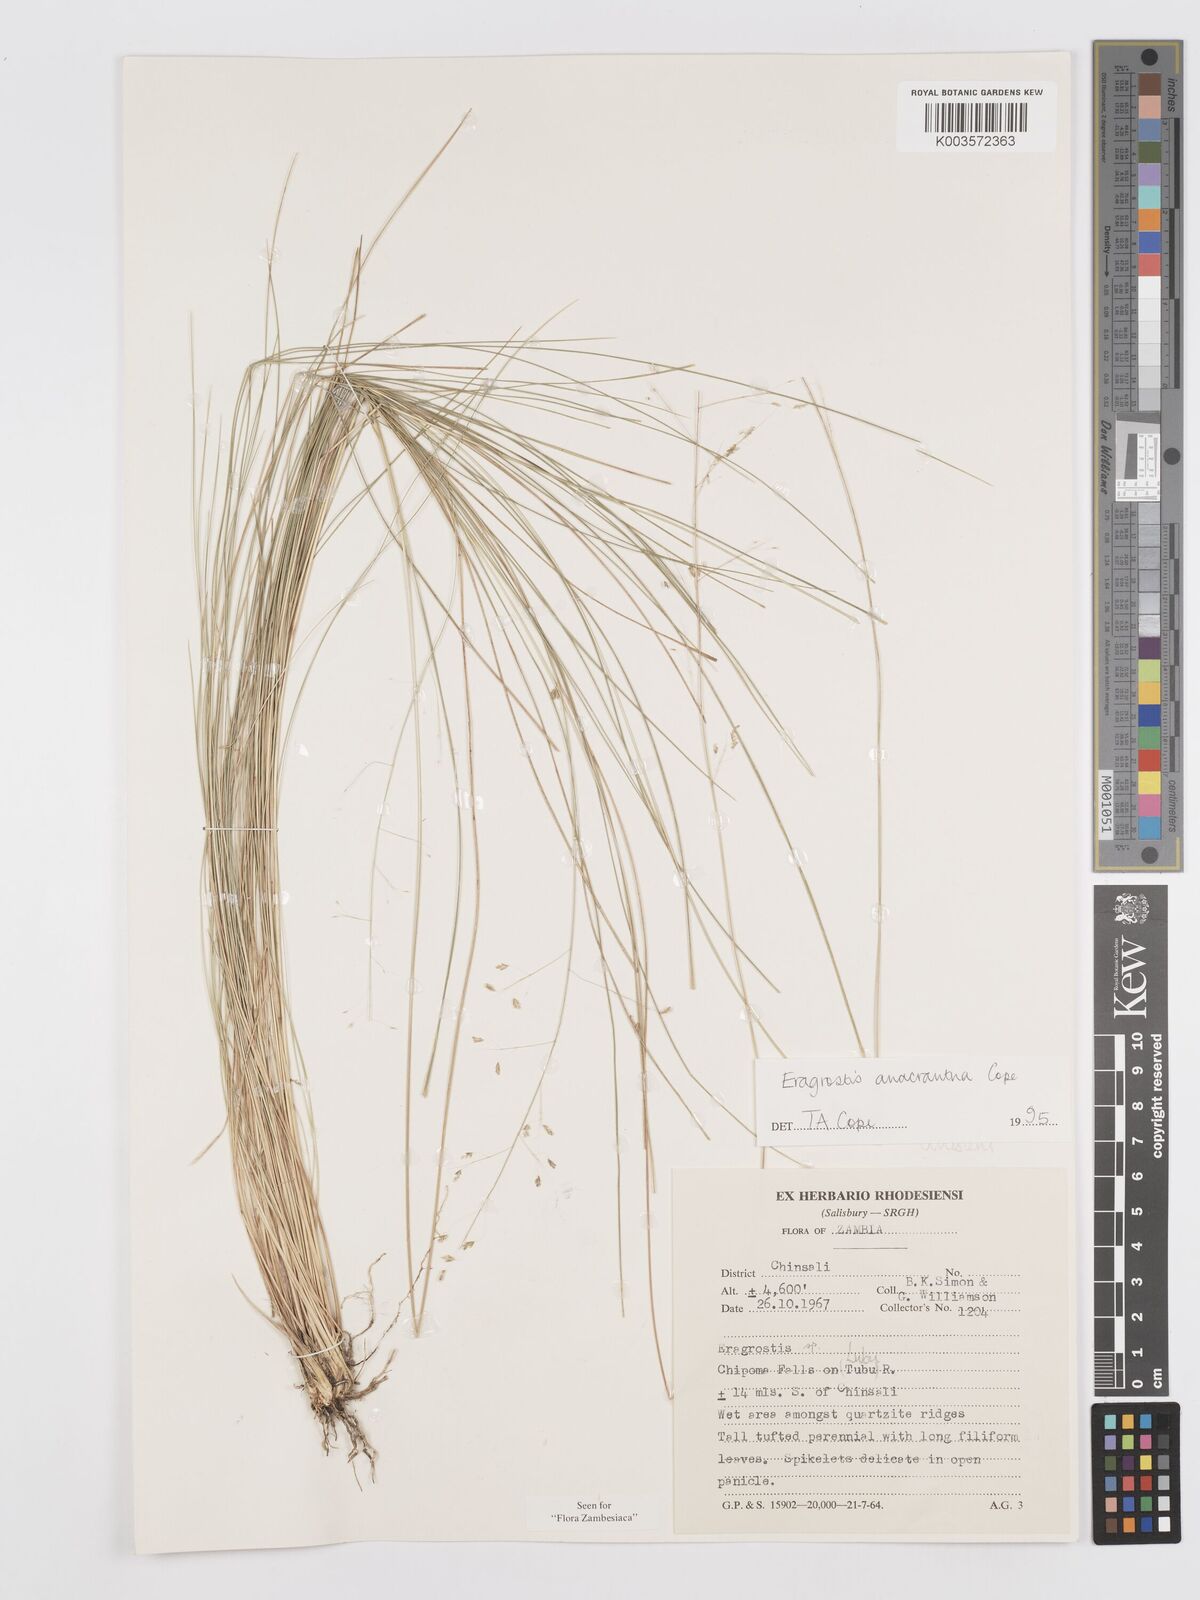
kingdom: Plantae
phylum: Tracheophyta
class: Liliopsida
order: Poales
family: Poaceae
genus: Eragrostis
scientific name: Eragrostis anacrantha
